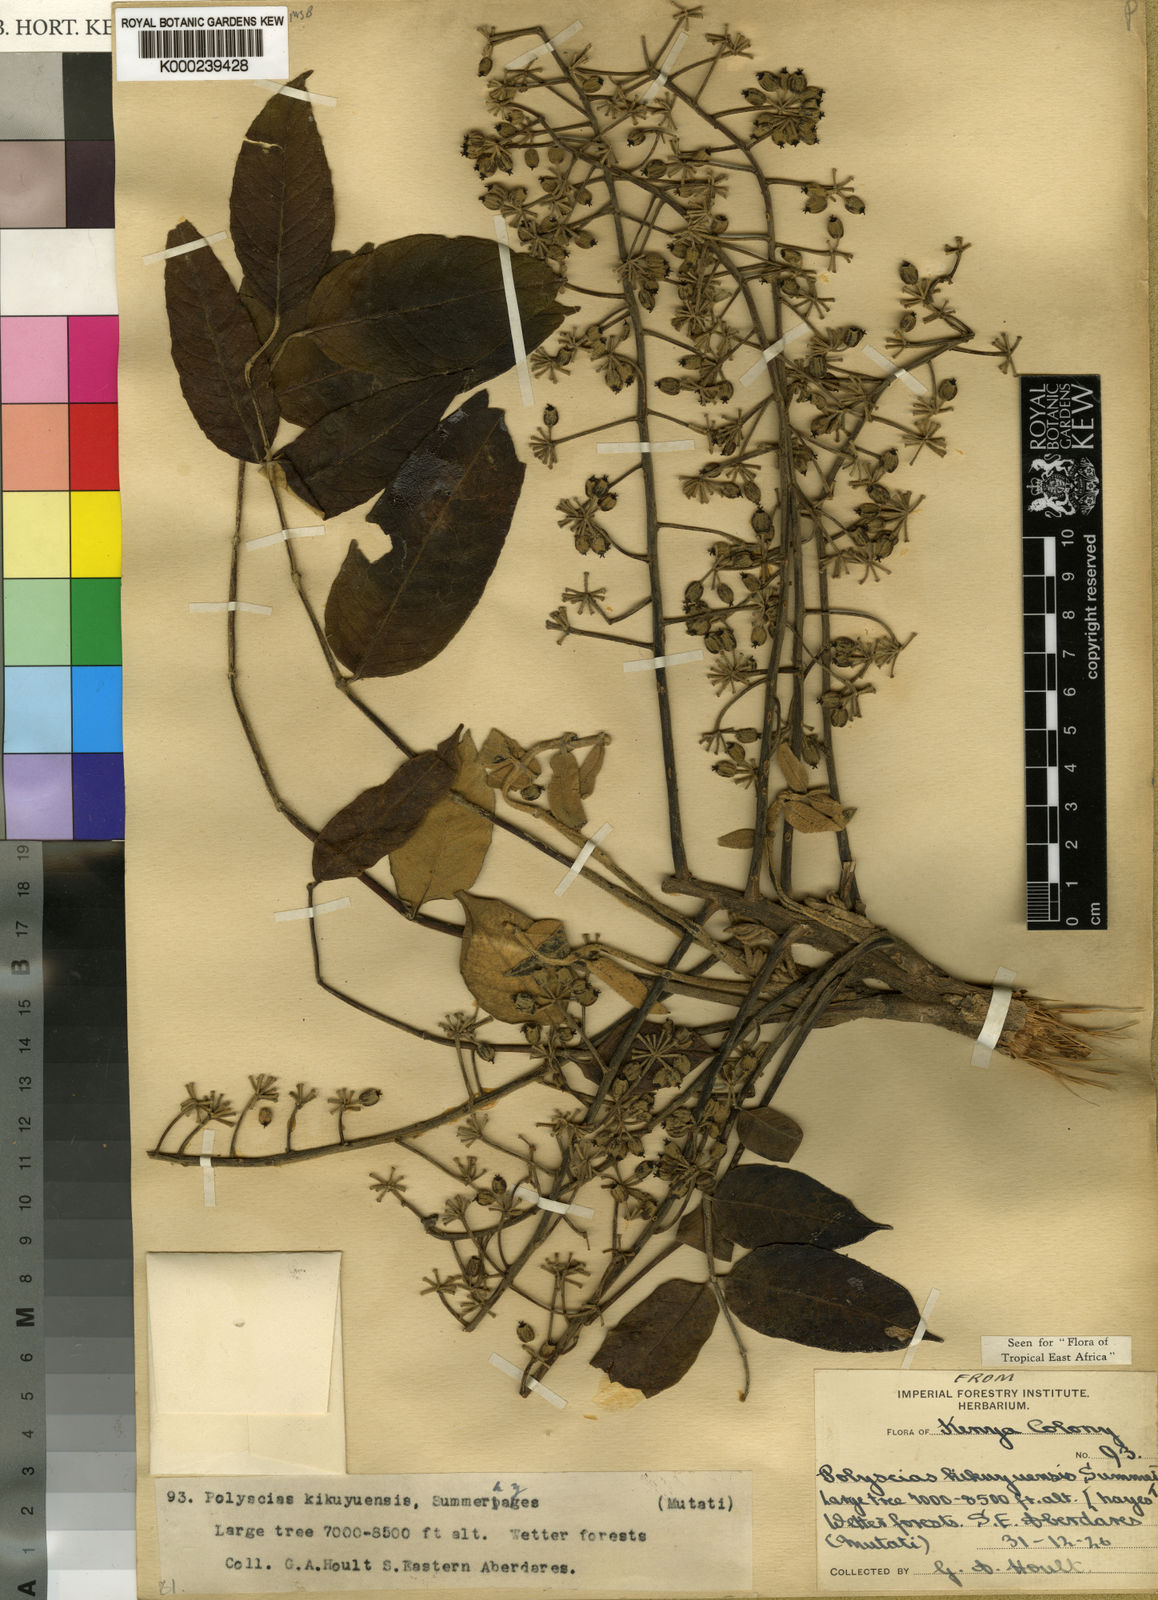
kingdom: Plantae
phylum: Tracheophyta
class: Magnoliopsida
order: Apiales
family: Araliaceae
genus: Polyscias
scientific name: Polyscias kikuyuensis
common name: Parasol tree
